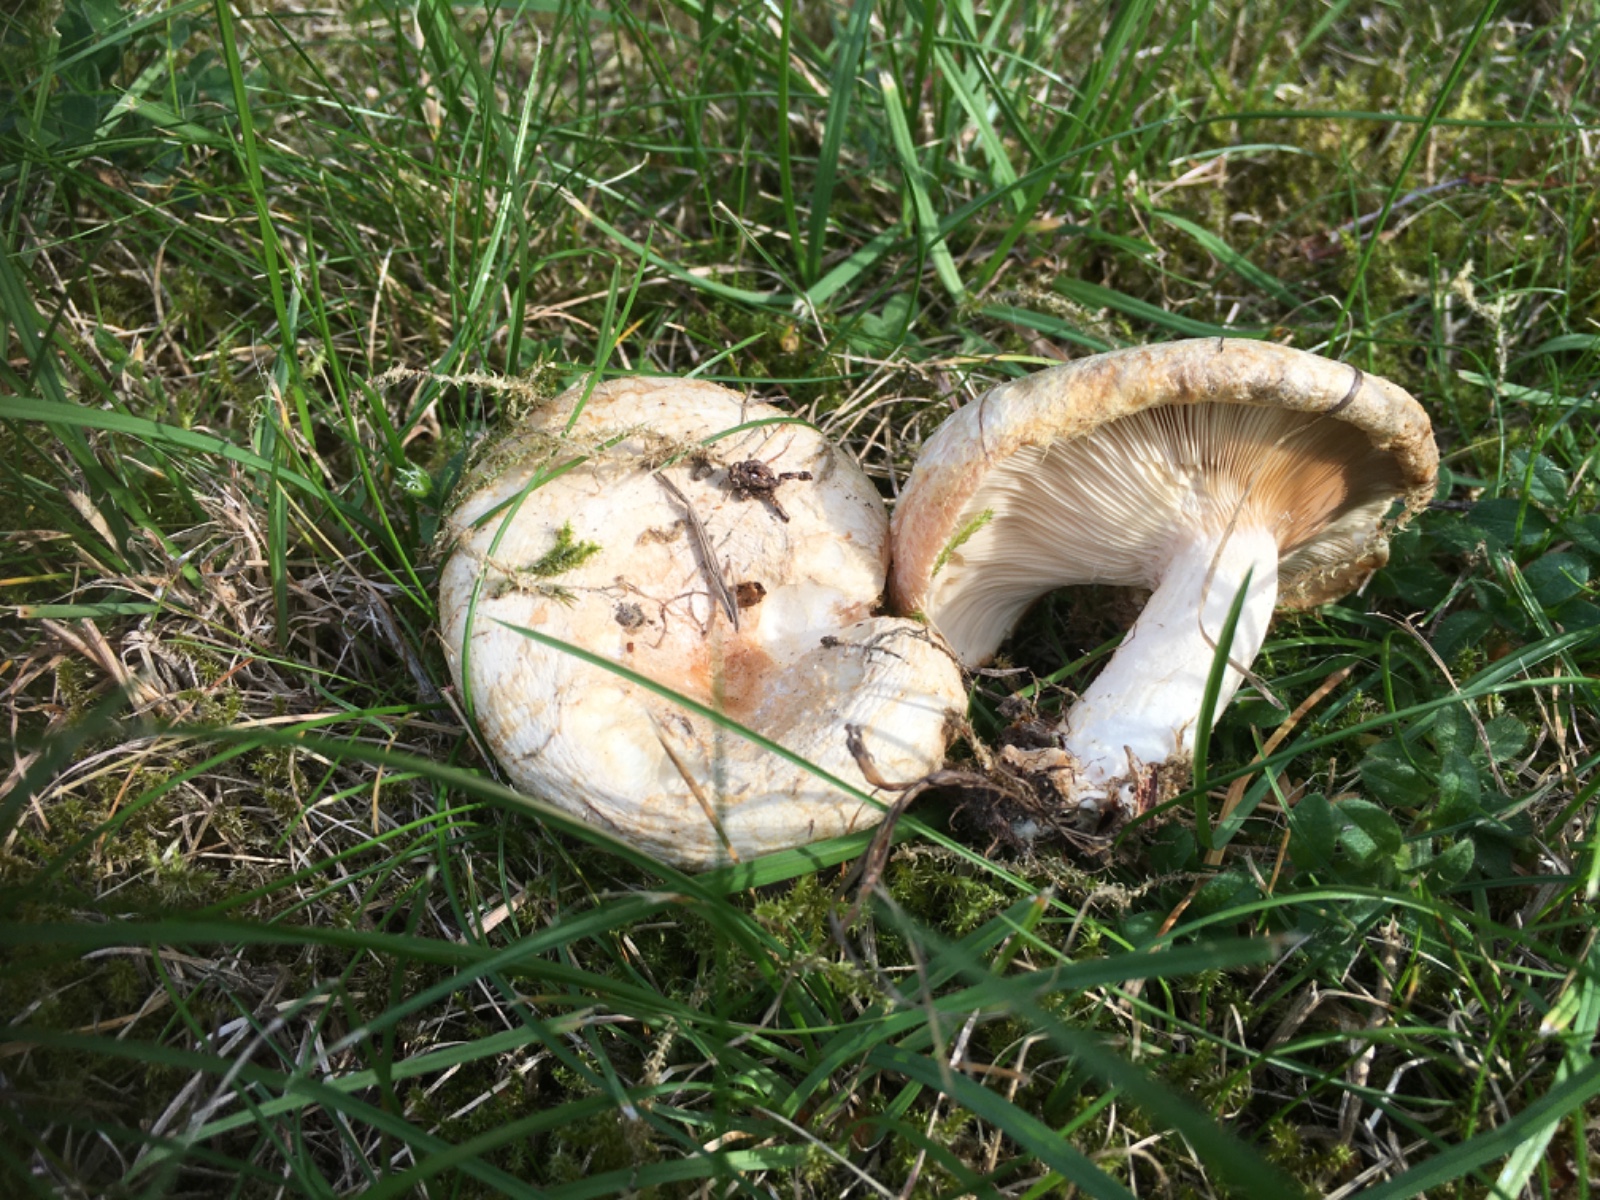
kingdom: Fungi
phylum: Basidiomycota
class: Agaricomycetes
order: Russulales
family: Russulaceae
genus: Lactarius
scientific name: Lactarius pubescens
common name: dunet mælkehat
